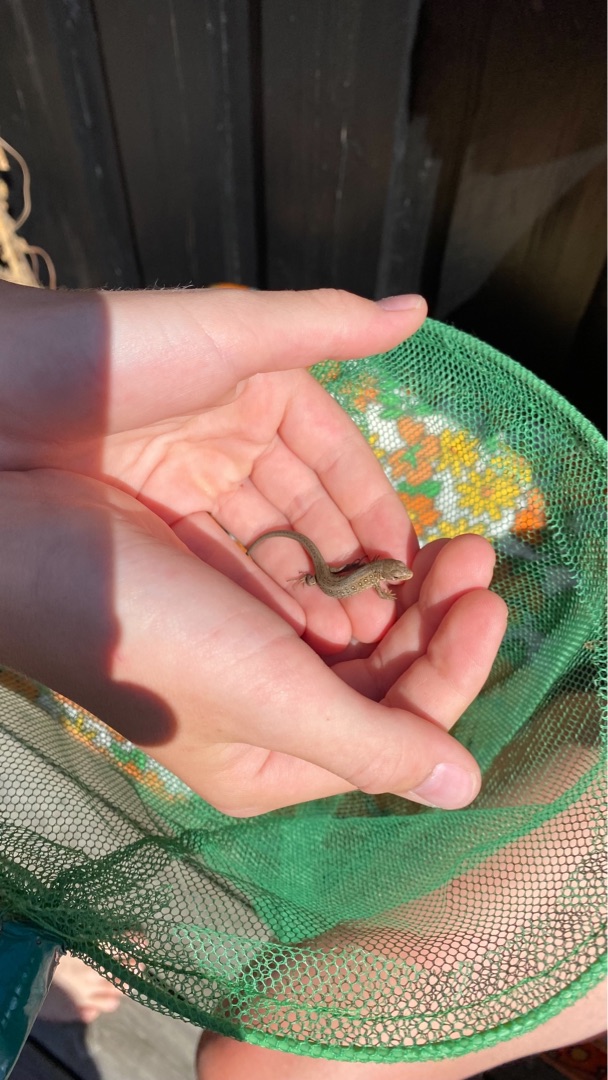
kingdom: Animalia
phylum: Chordata
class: Squamata
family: Lacertidae
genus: Lacerta
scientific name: Lacerta agilis
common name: Markfirben
